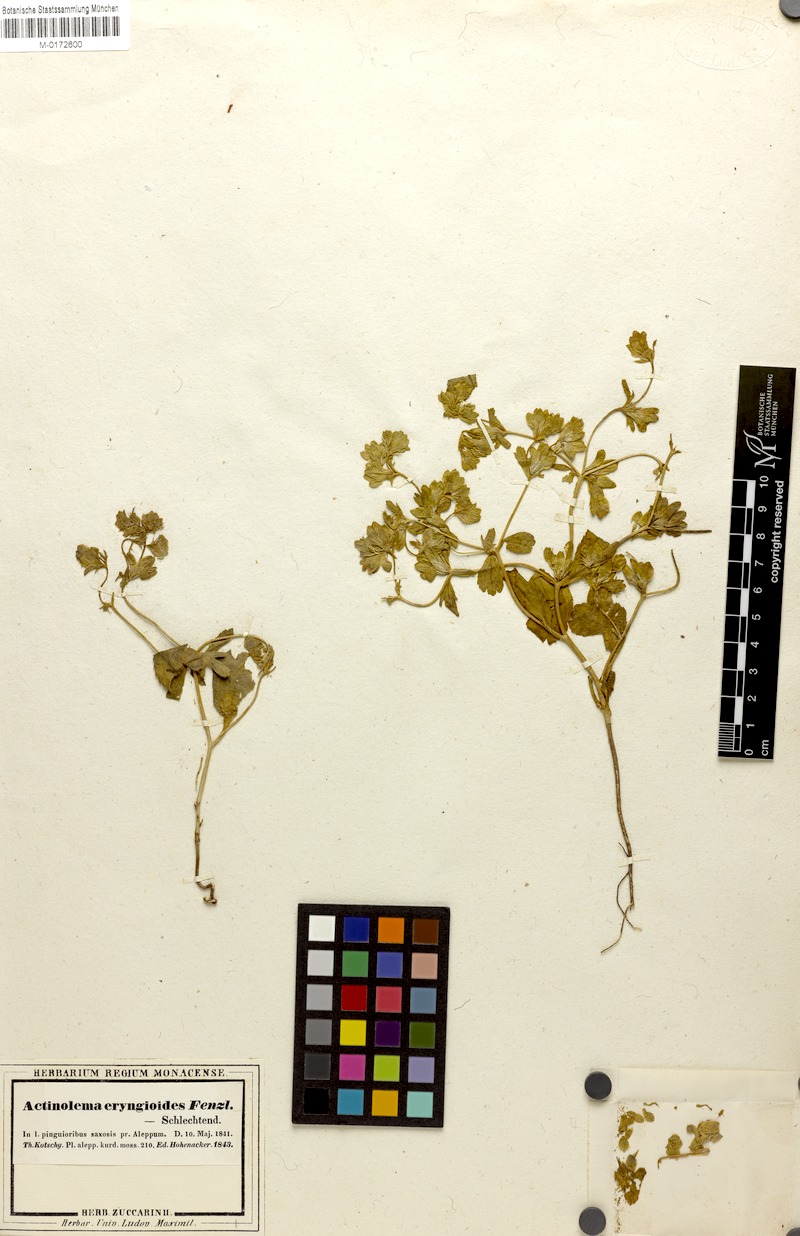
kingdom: Plantae
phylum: Tracheophyta
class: Magnoliopsida
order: Apiales
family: Apiaceae
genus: Actinolema
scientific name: Actinolema eryngioides
